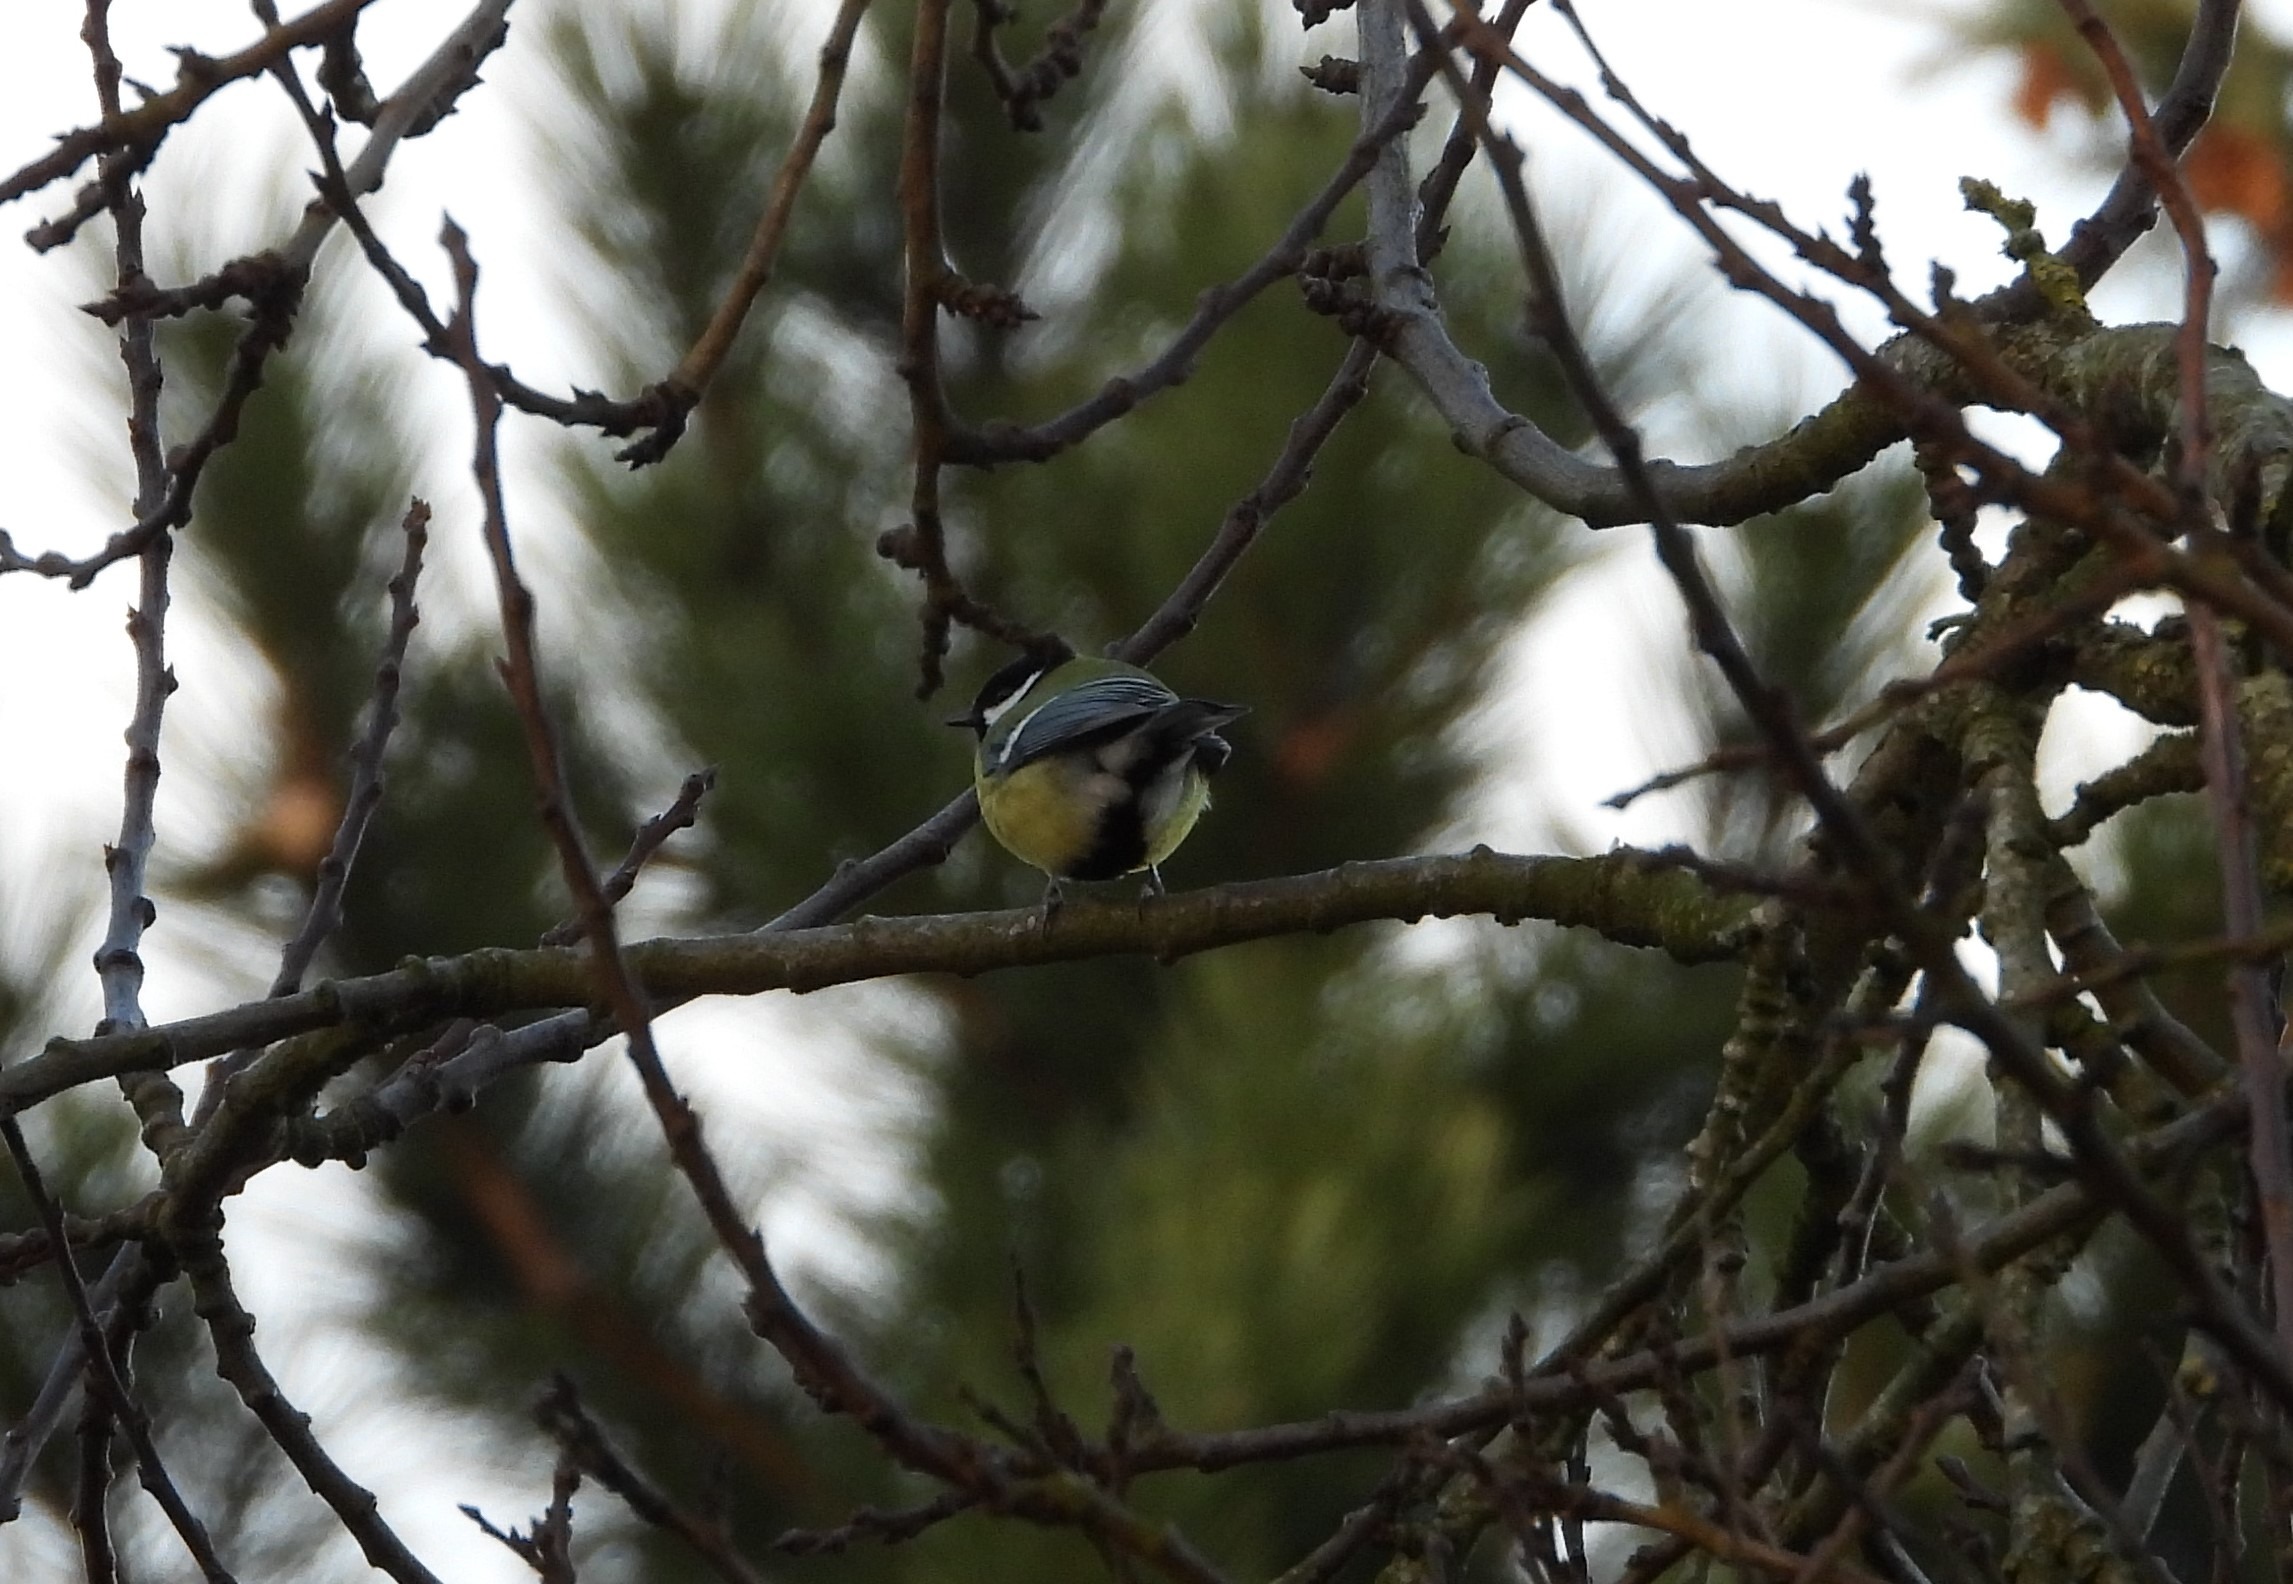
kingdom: Animalia
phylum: Chordata
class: Aves
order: Passeriformes
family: Paridae
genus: Parus
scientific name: Parus major
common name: Musvit
